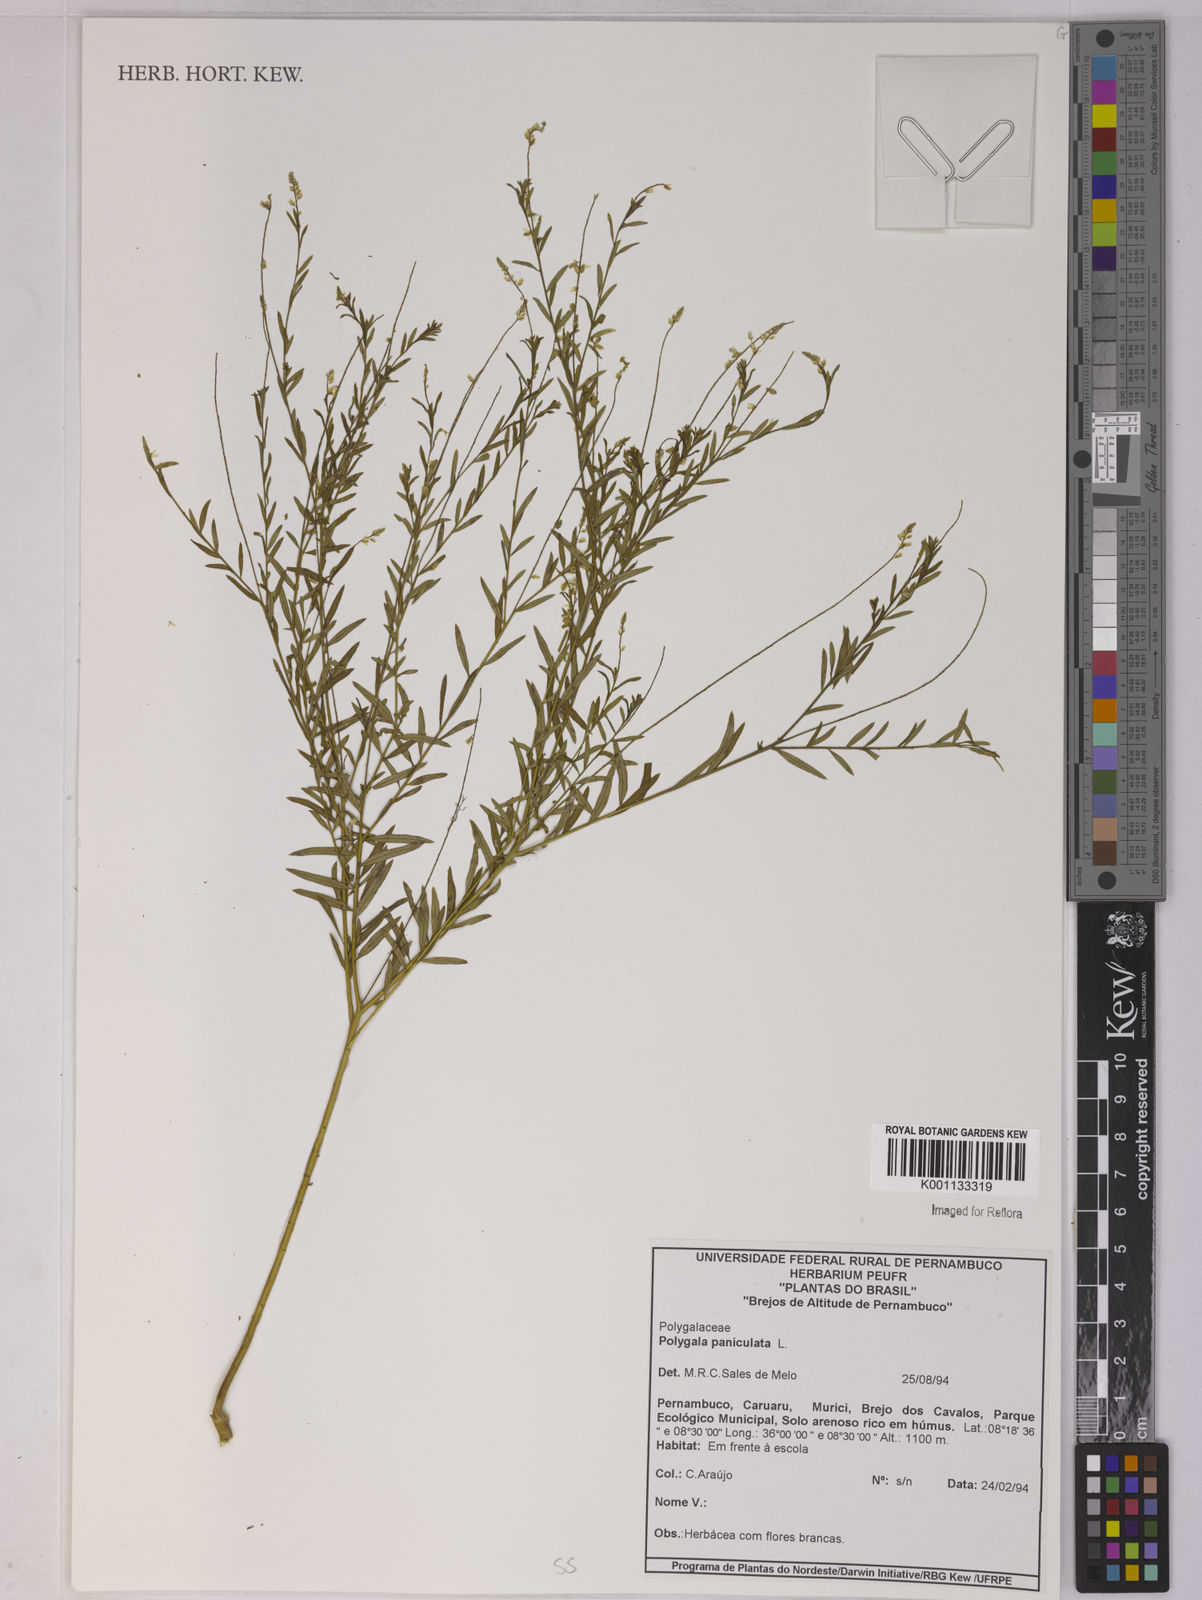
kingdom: Plantae
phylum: Tracheophyta
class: Magnoliopsida
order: Fabales
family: Polygalaceae
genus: Polygala
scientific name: Polygala paniculata
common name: Orosne
